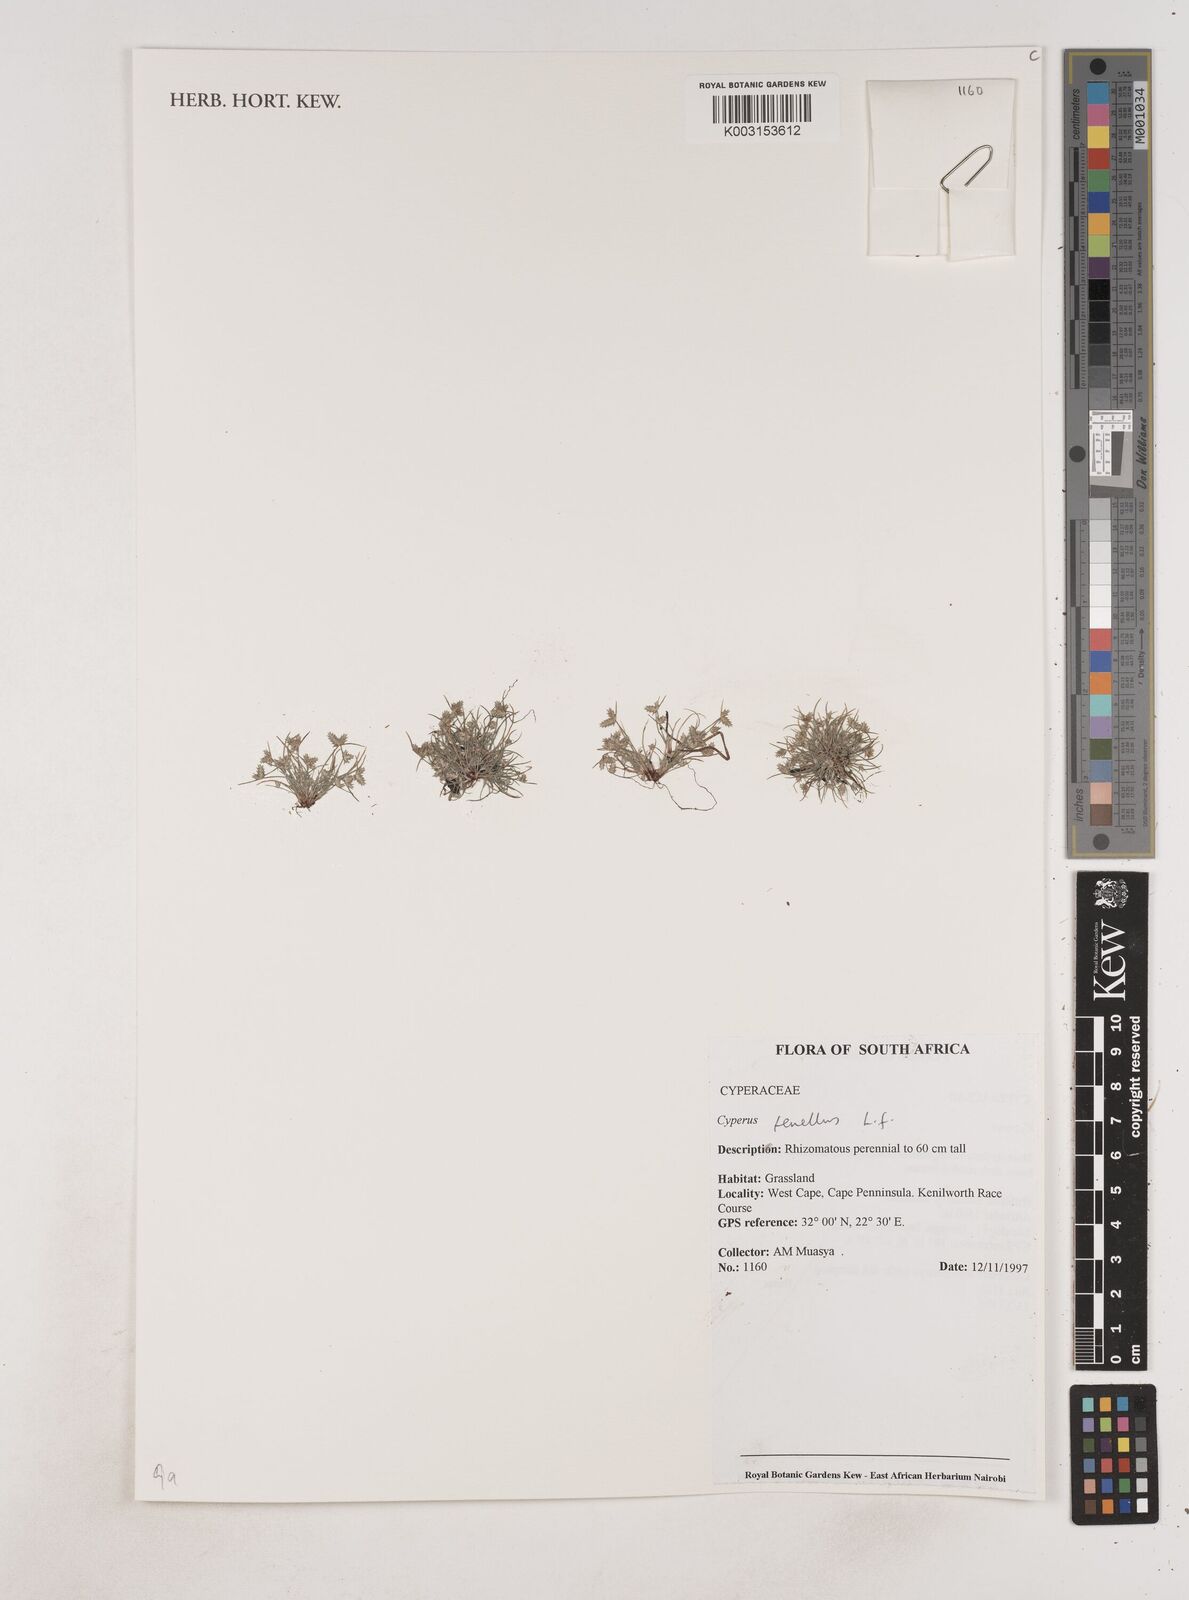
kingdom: Plantae
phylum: Tracheophyta
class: Liliopsida
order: Poales
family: Cyperaceae
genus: Isolepis
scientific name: Isolepis levynsiana
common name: Sedge
